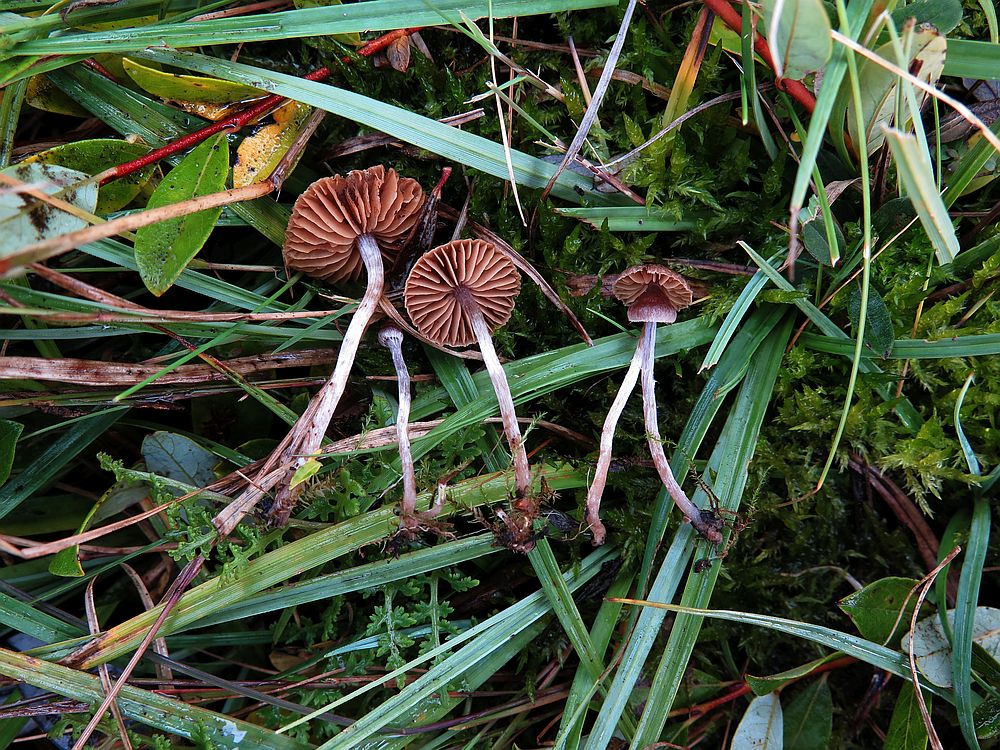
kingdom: Fungi
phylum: Basidiomycota
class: Agaricomycetes
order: Agaricales
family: Cortinariaceae
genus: Cortinarius
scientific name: Cortinarius castaneus
